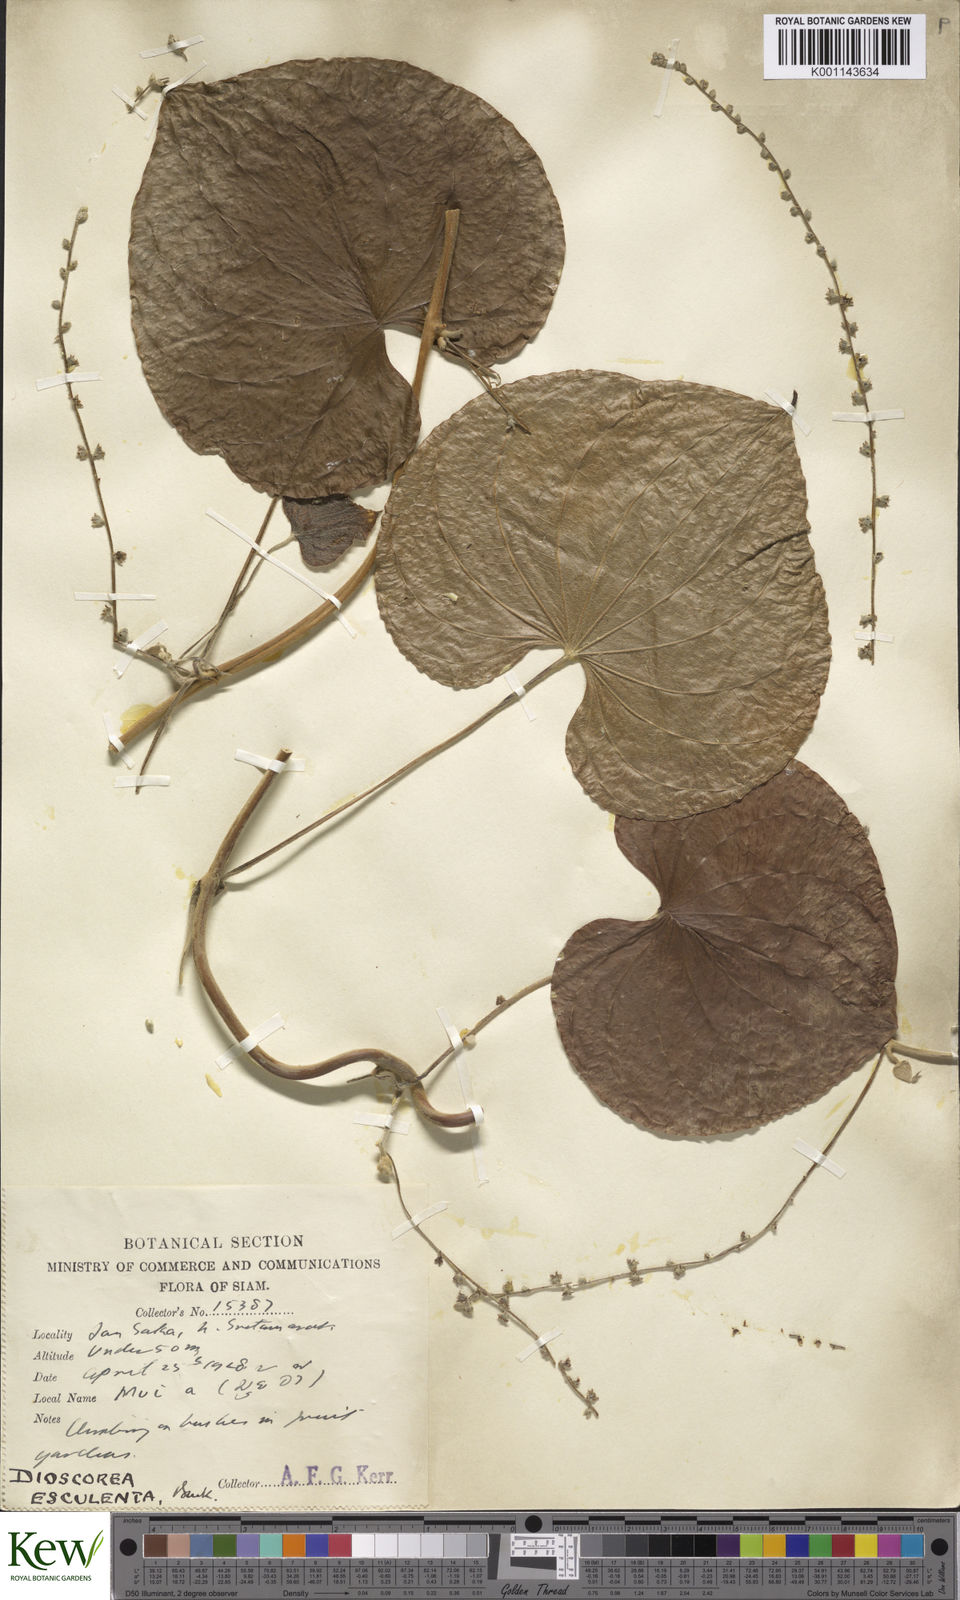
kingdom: Plantae
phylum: Tracheophyta
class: Liliopsida
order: Dioscoreales
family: Dioscoreaceae
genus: Dioscorea
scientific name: Dioscorea esculenta
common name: Chinese yam
